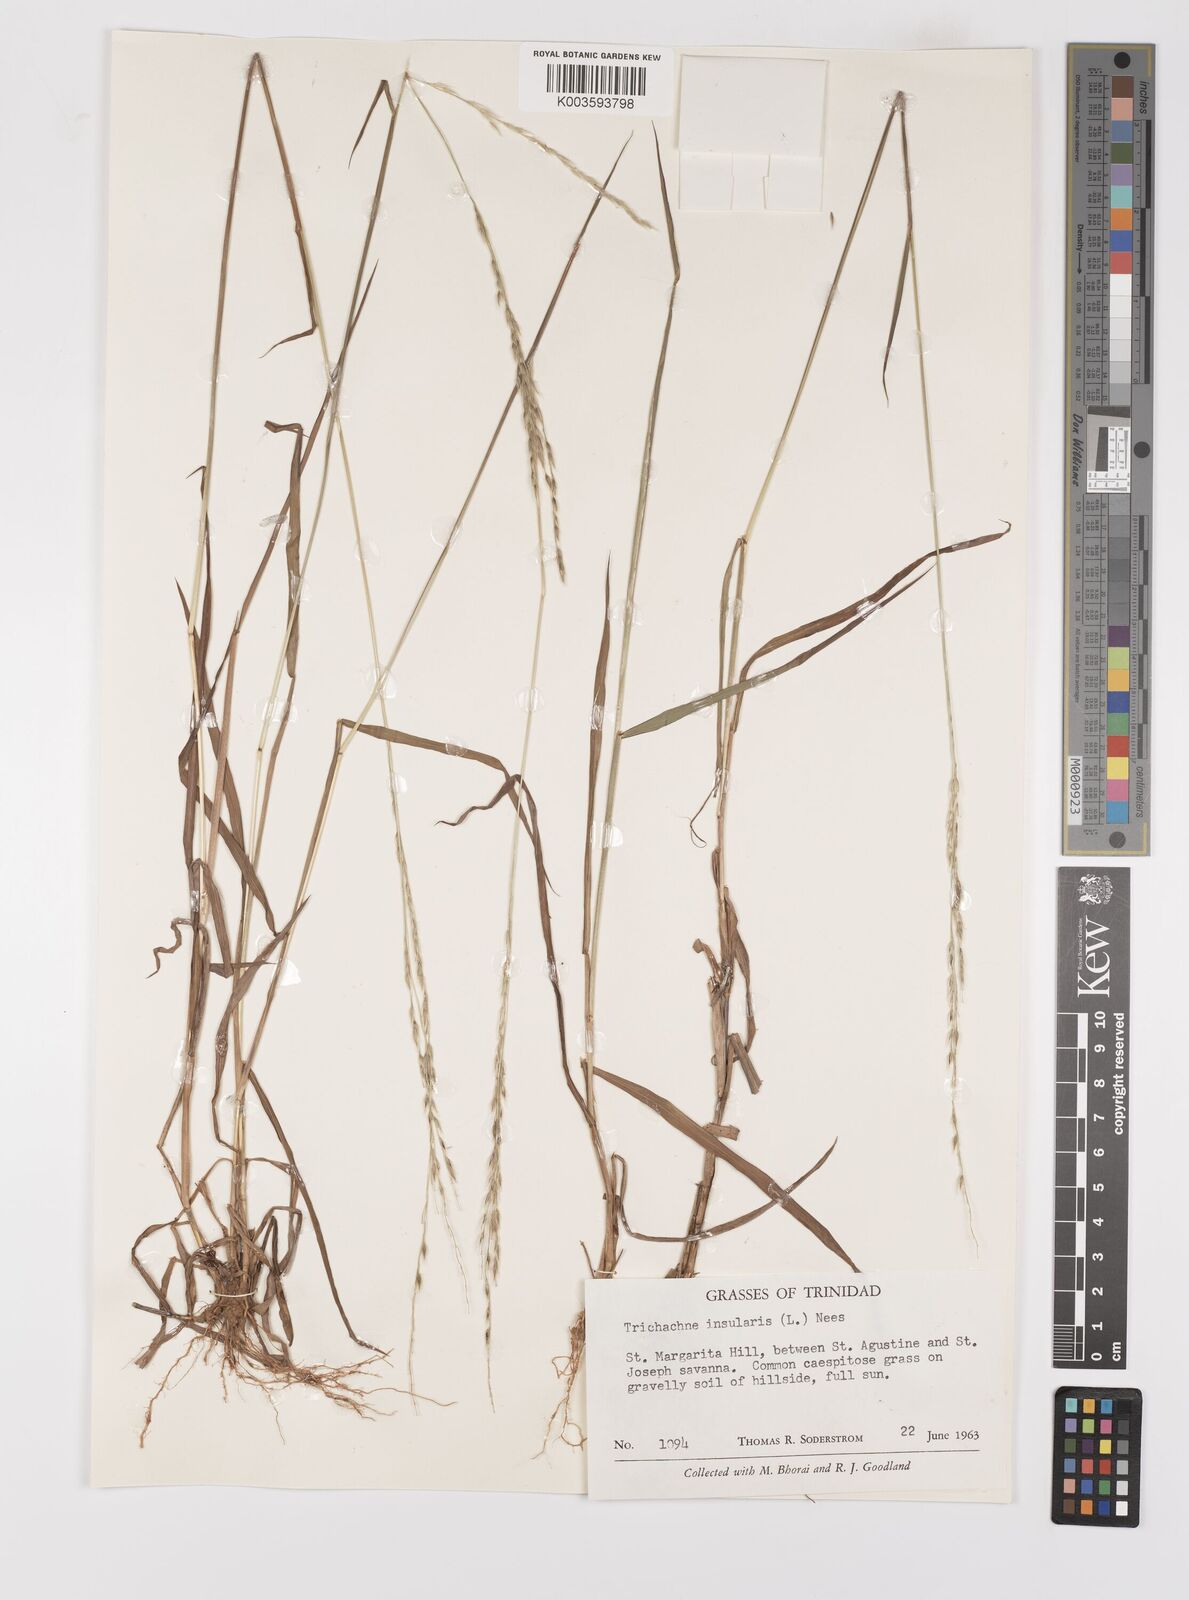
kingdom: Plantae
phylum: Tracheophyta
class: Liliopsida
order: Poales
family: Poaceae
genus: Digitaria
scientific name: Digitaria insularis
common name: Sourgrass
